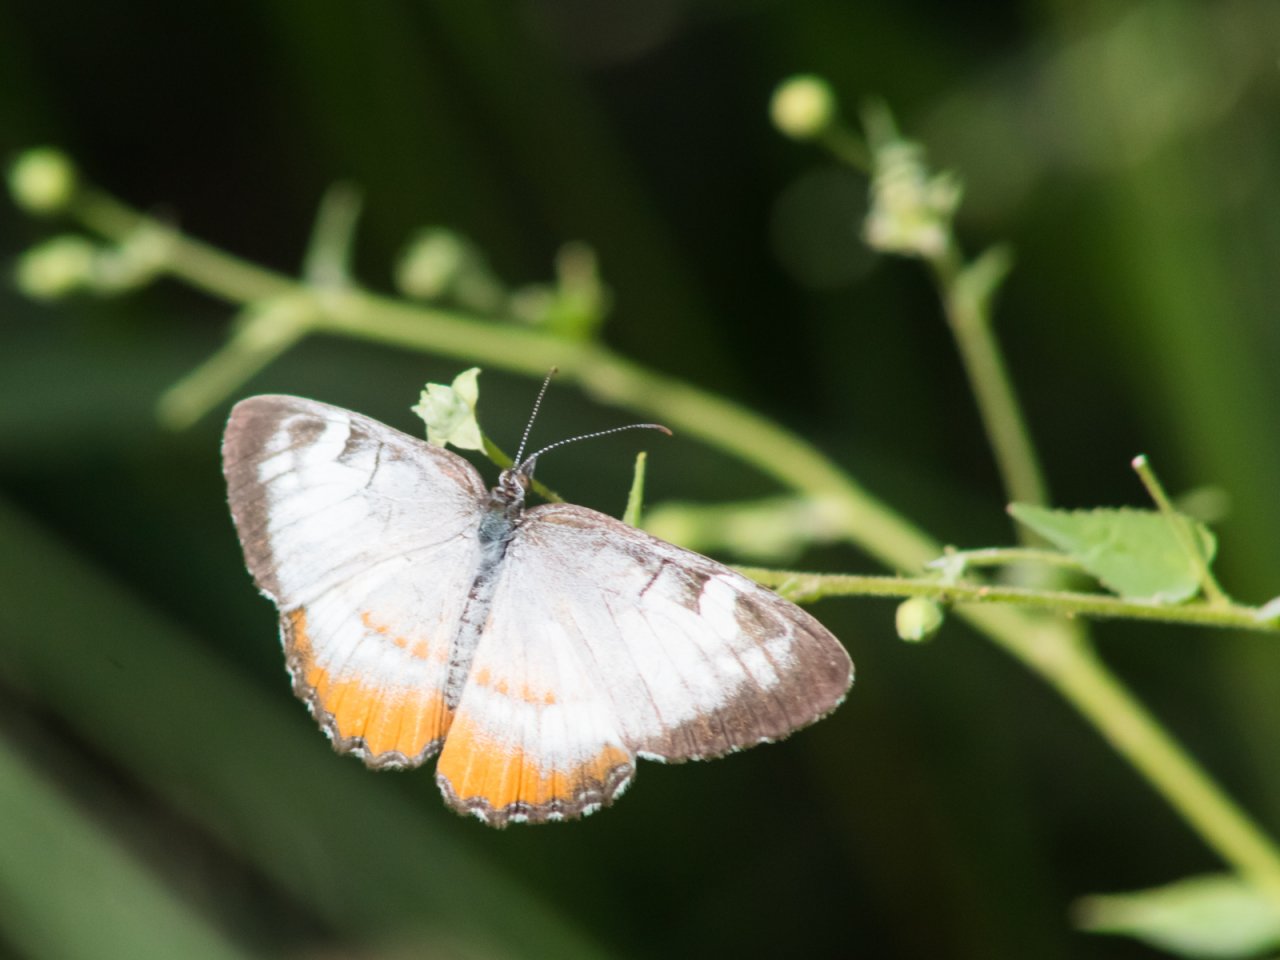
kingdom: Animalia
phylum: Arthropoda
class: Insecta
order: Lepidoptera
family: Nymphalidae
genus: Mestra
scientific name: Mestra amymone
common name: Common Mestra
